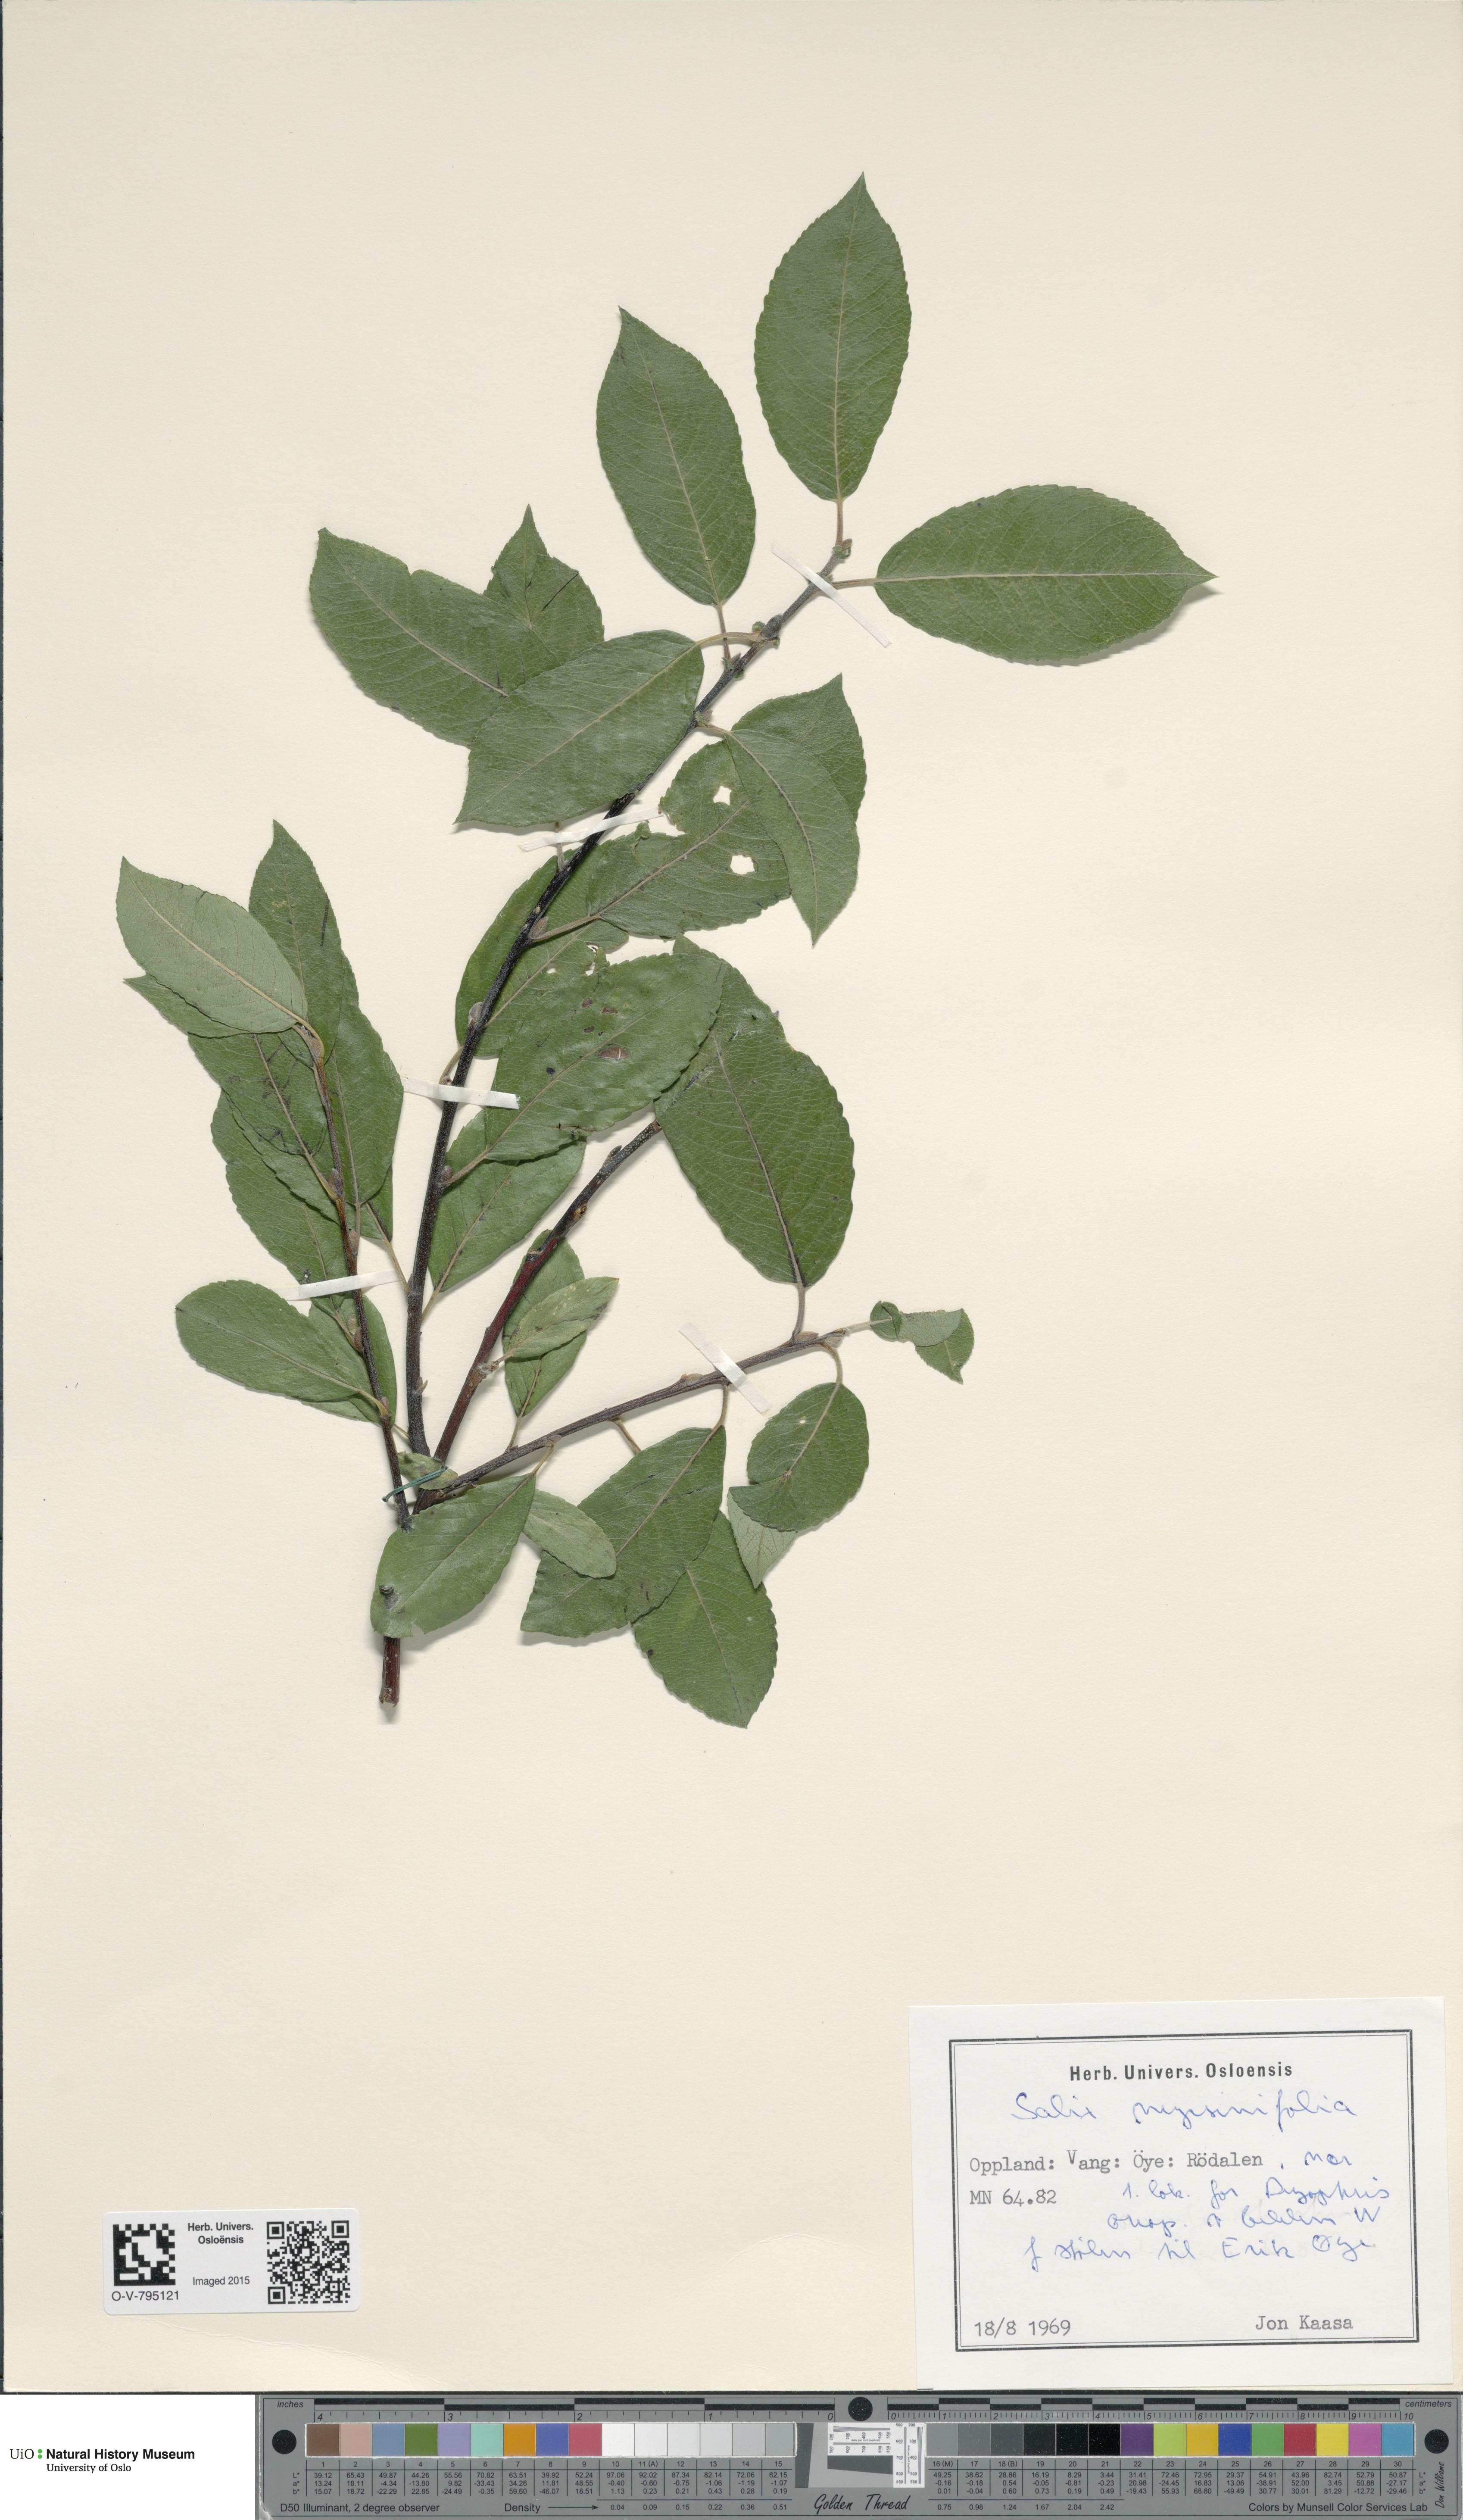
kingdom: Plantae
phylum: Tracheophyta
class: Magnoliopsida
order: Malpighiales
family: Salicaceae
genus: Salix
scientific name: Salix myrsinifolia
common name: Dark-leaved willow
